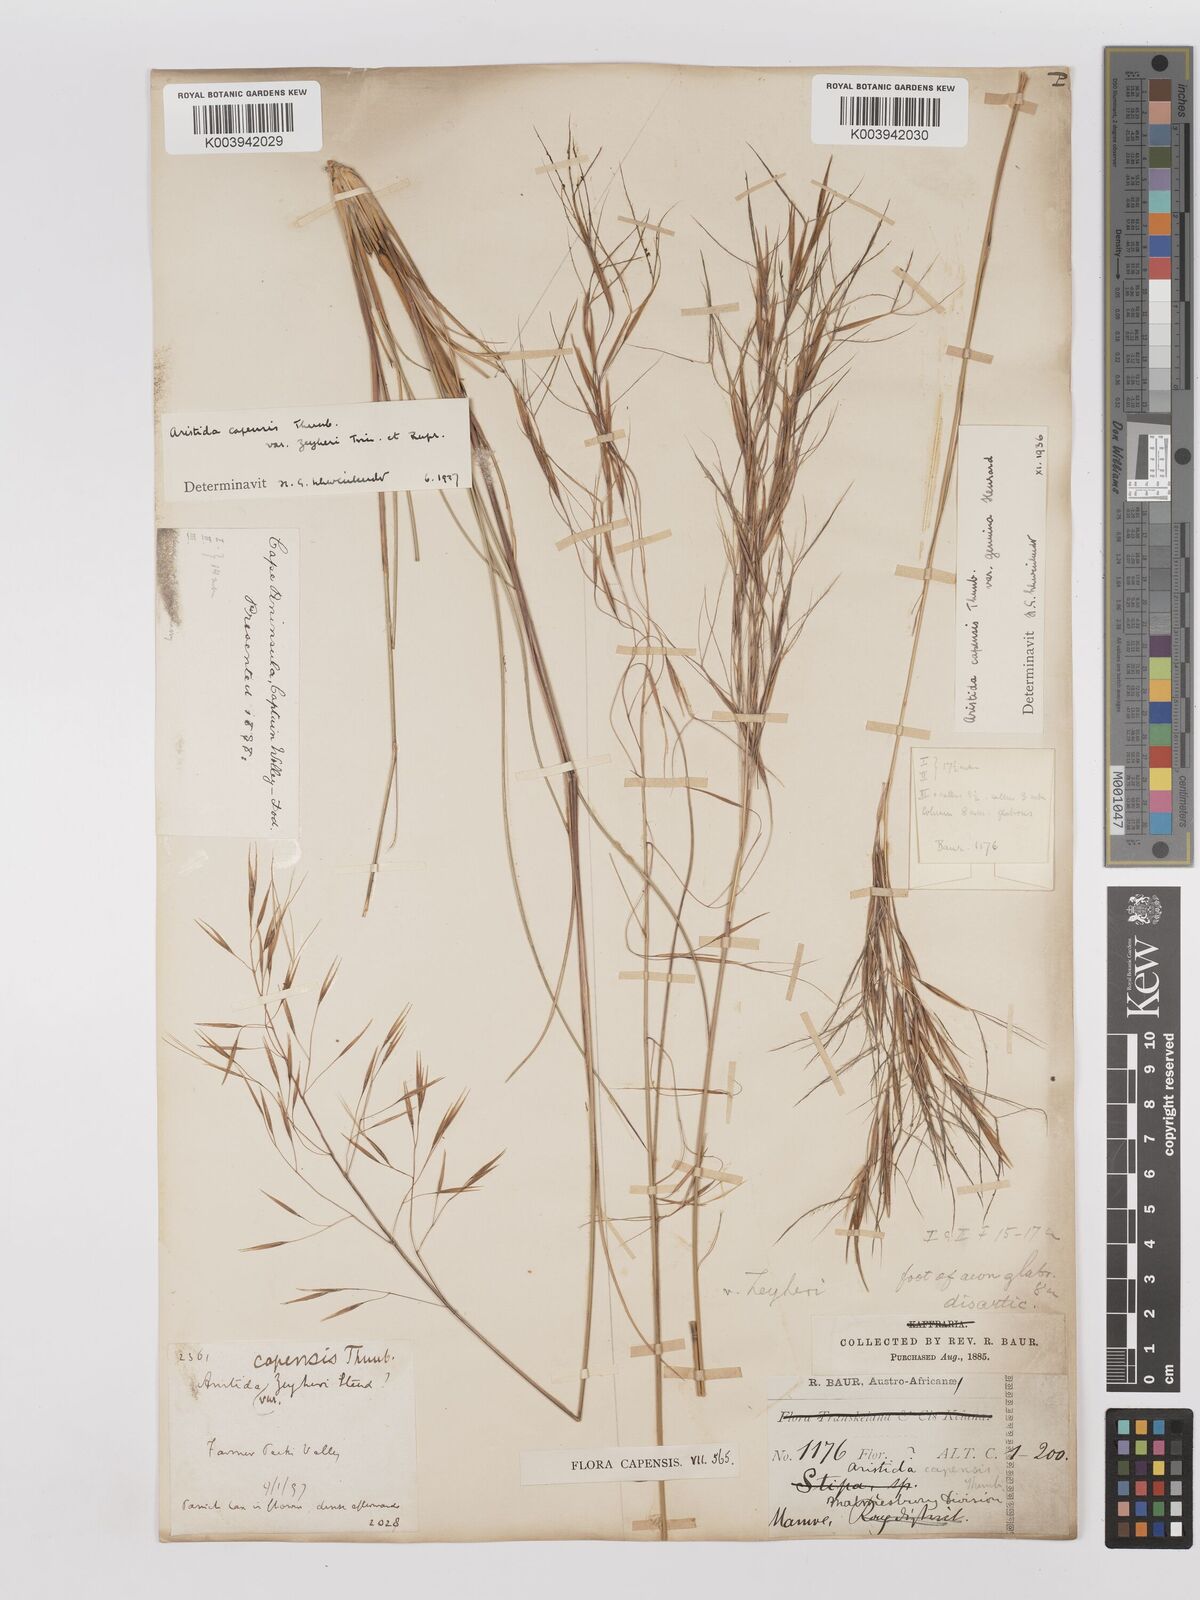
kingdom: Plantae
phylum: Tracheophyta
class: Liliopsida
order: Poales
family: Poaceae
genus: Stipagrostis
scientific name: Stipagrostis zeyheri
